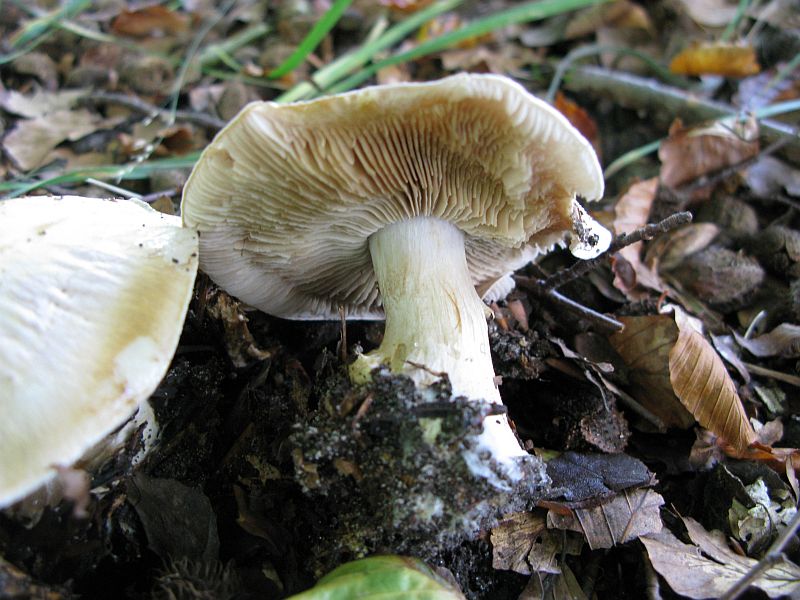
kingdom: Fungi
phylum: Basidiomycota
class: Agaricomycetes
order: Agaricales
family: Cortinariaceae
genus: Thaxterogaster
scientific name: Thaxterogaster barbatus
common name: elfenbens-slørhat
